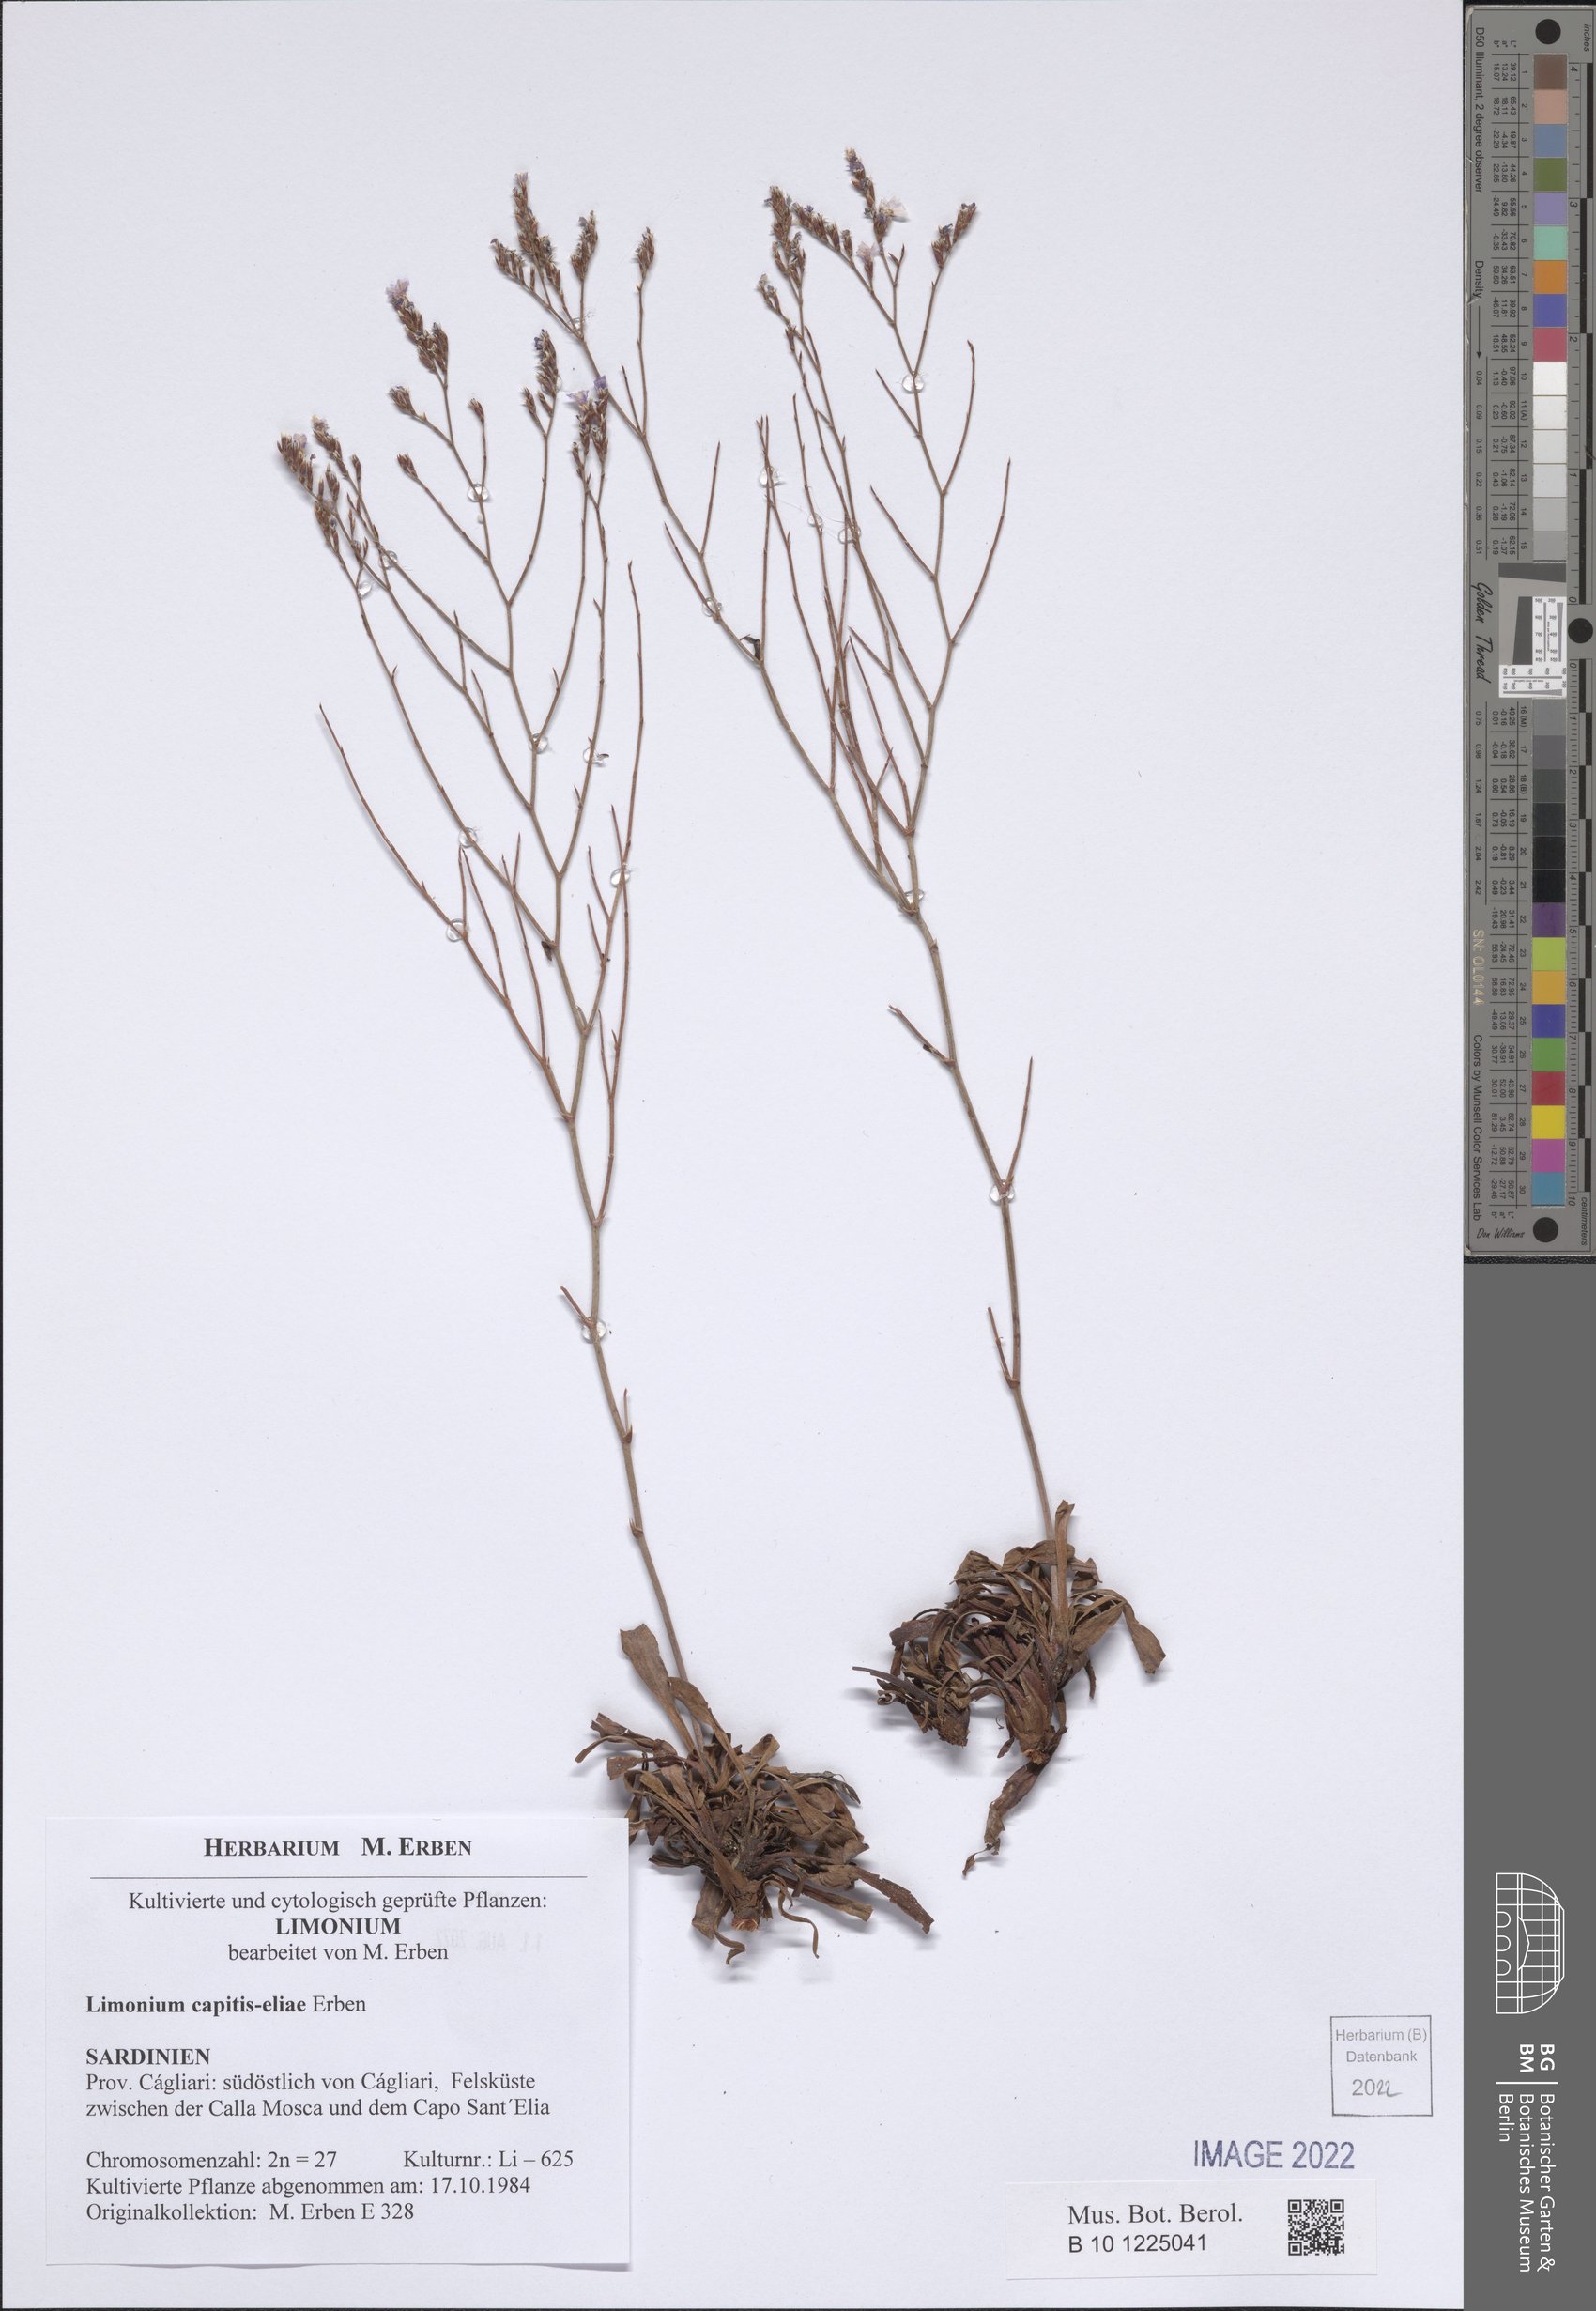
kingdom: Plantae
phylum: Tracheophyta
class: Magnoliopsida
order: Caryophyllales
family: Plumbaginaceae
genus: Limonium
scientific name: Limonium capitis-eliae
